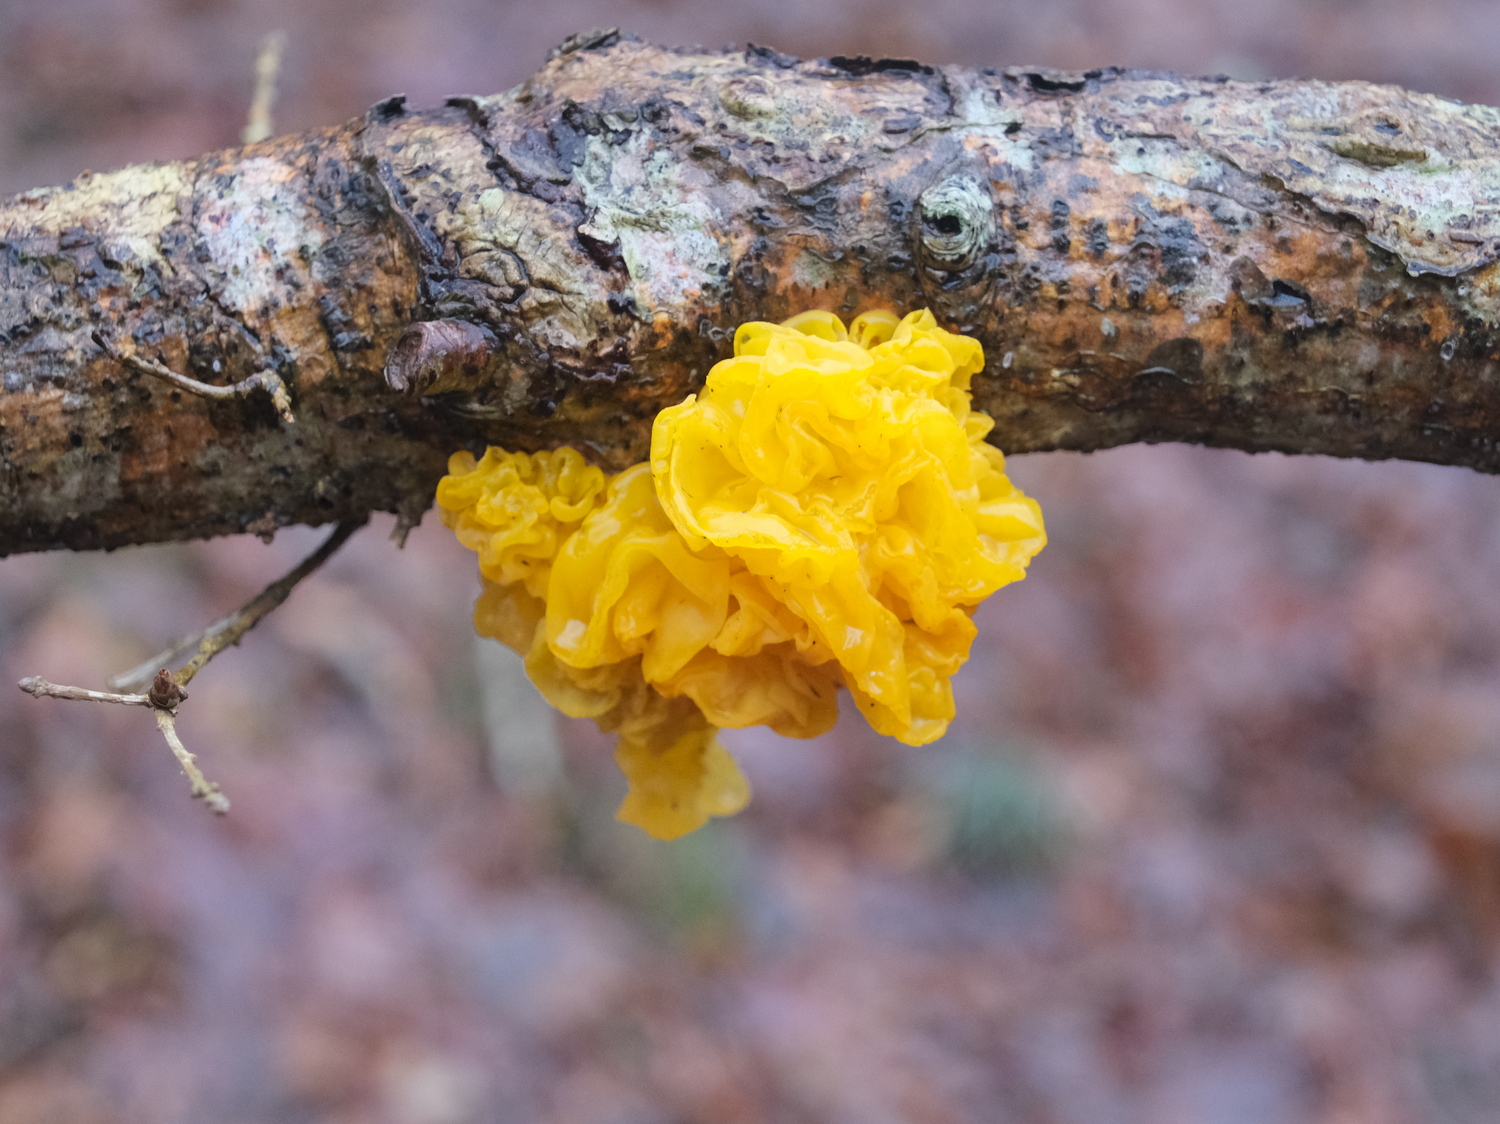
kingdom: Fungi
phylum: Basidiomycota
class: Tremellomycetes
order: Tremellales
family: Tremellaceae
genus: Tremella
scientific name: Tremella mesenterica
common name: gul bævresvamp
